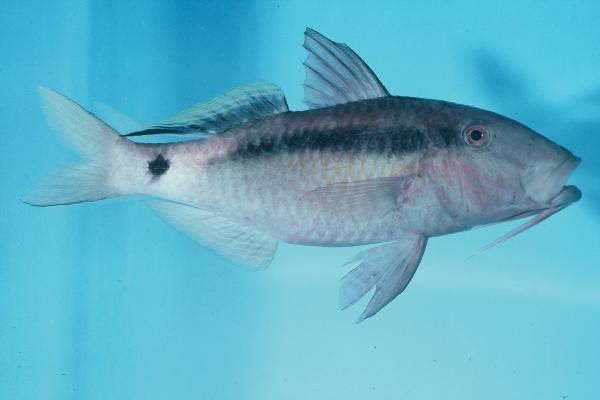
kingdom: Animalia
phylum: Chordata
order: Perciformes
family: Mullidae
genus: Parupeneus
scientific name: Parupeneus macronemus
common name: Long-barbel goatfish
